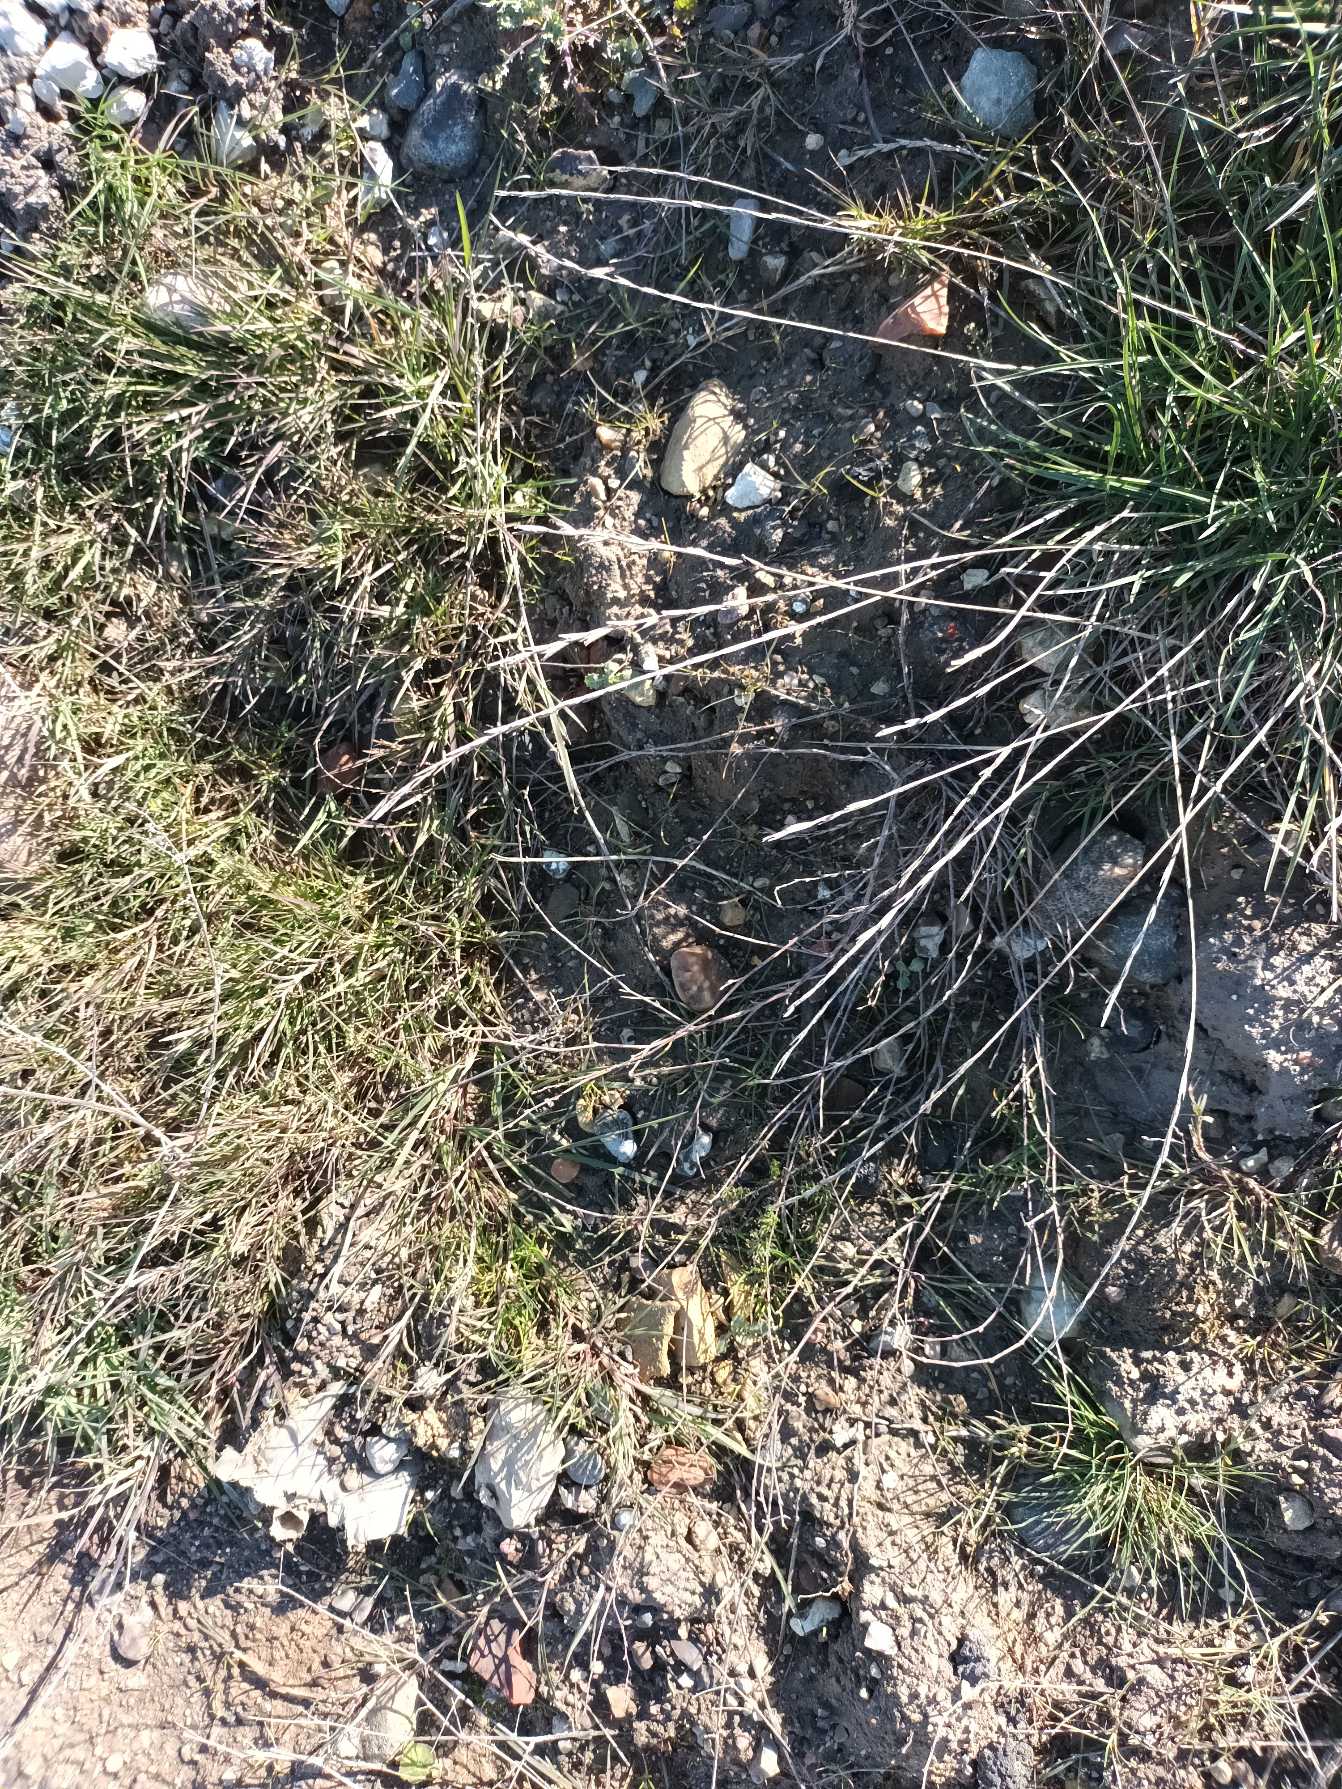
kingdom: Plantae
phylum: Tracheophyta
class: Liliopsida
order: Poales
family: Poaceae
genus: Lolium
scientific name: Lolium perenne
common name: Almindelig rajgræs
